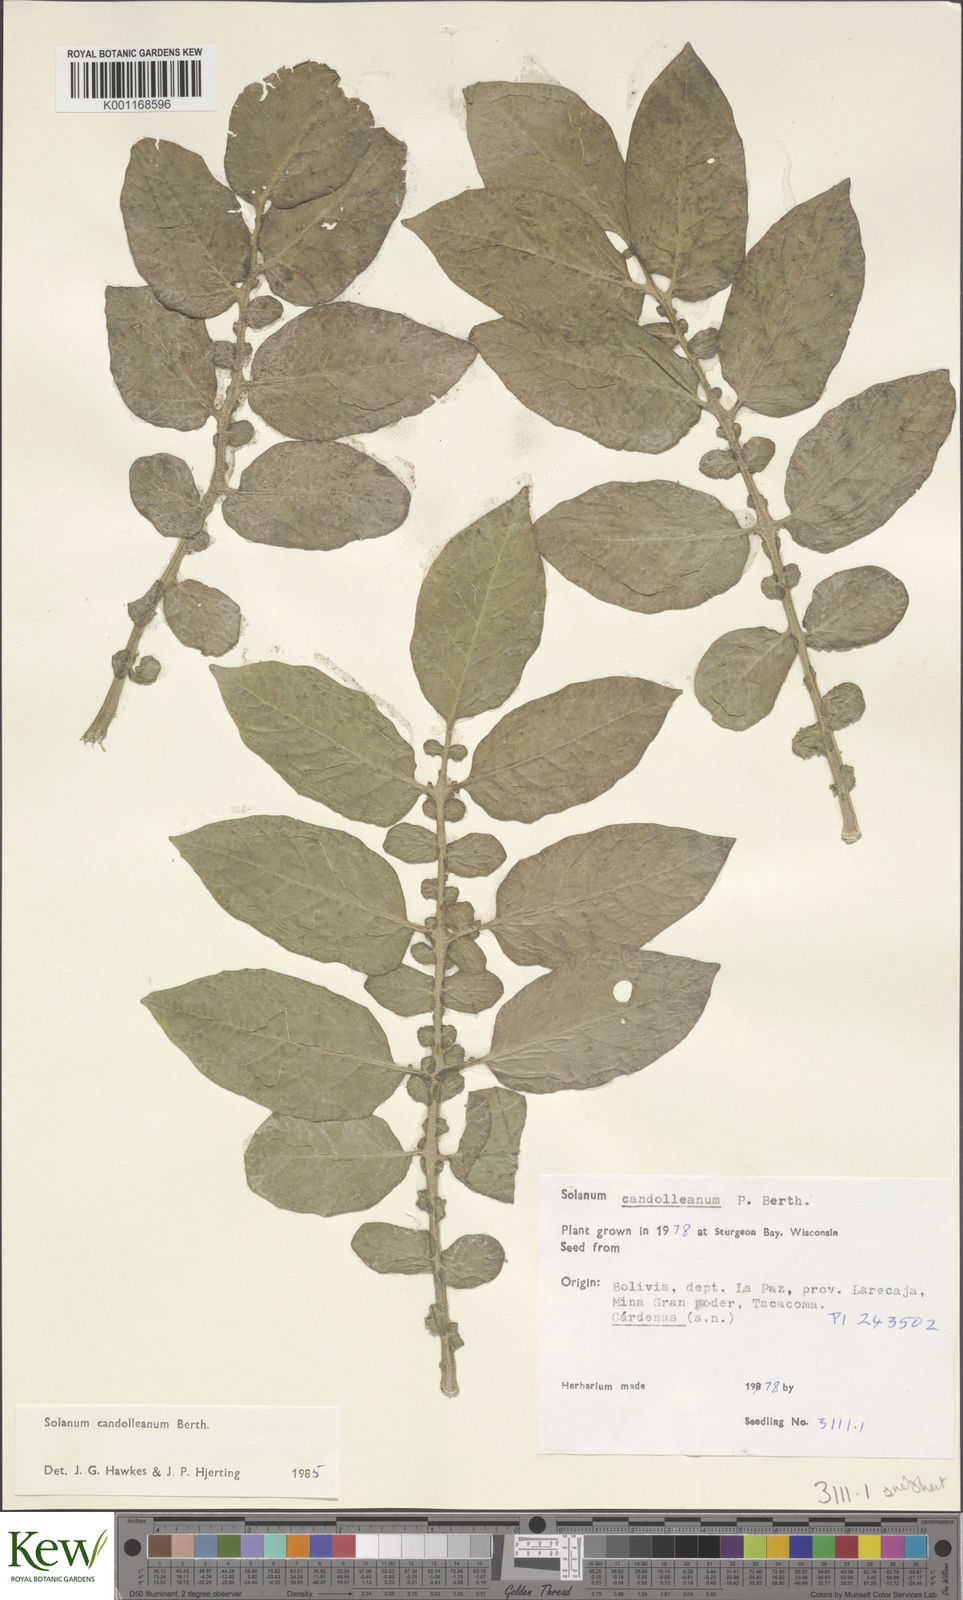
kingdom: Plantae
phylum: Tracheophyta
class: Magnoliopsida
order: Solanales
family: Solanaceae
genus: Solanum
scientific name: Solanum candolleanum
